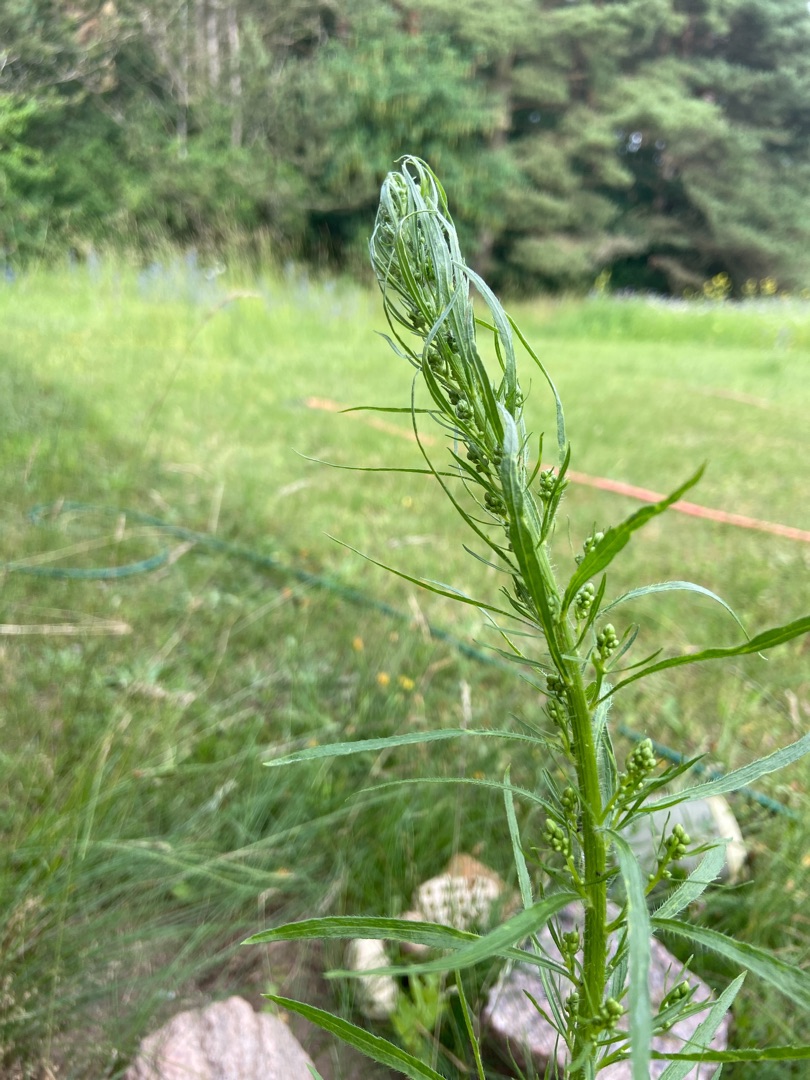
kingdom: Plantae
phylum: Tracheophyta
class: Magnoliopsida
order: Asterales
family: Asteraceae
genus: Erigeron
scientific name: Erigeron canadensis
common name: Kanadisk bakkestjerne
